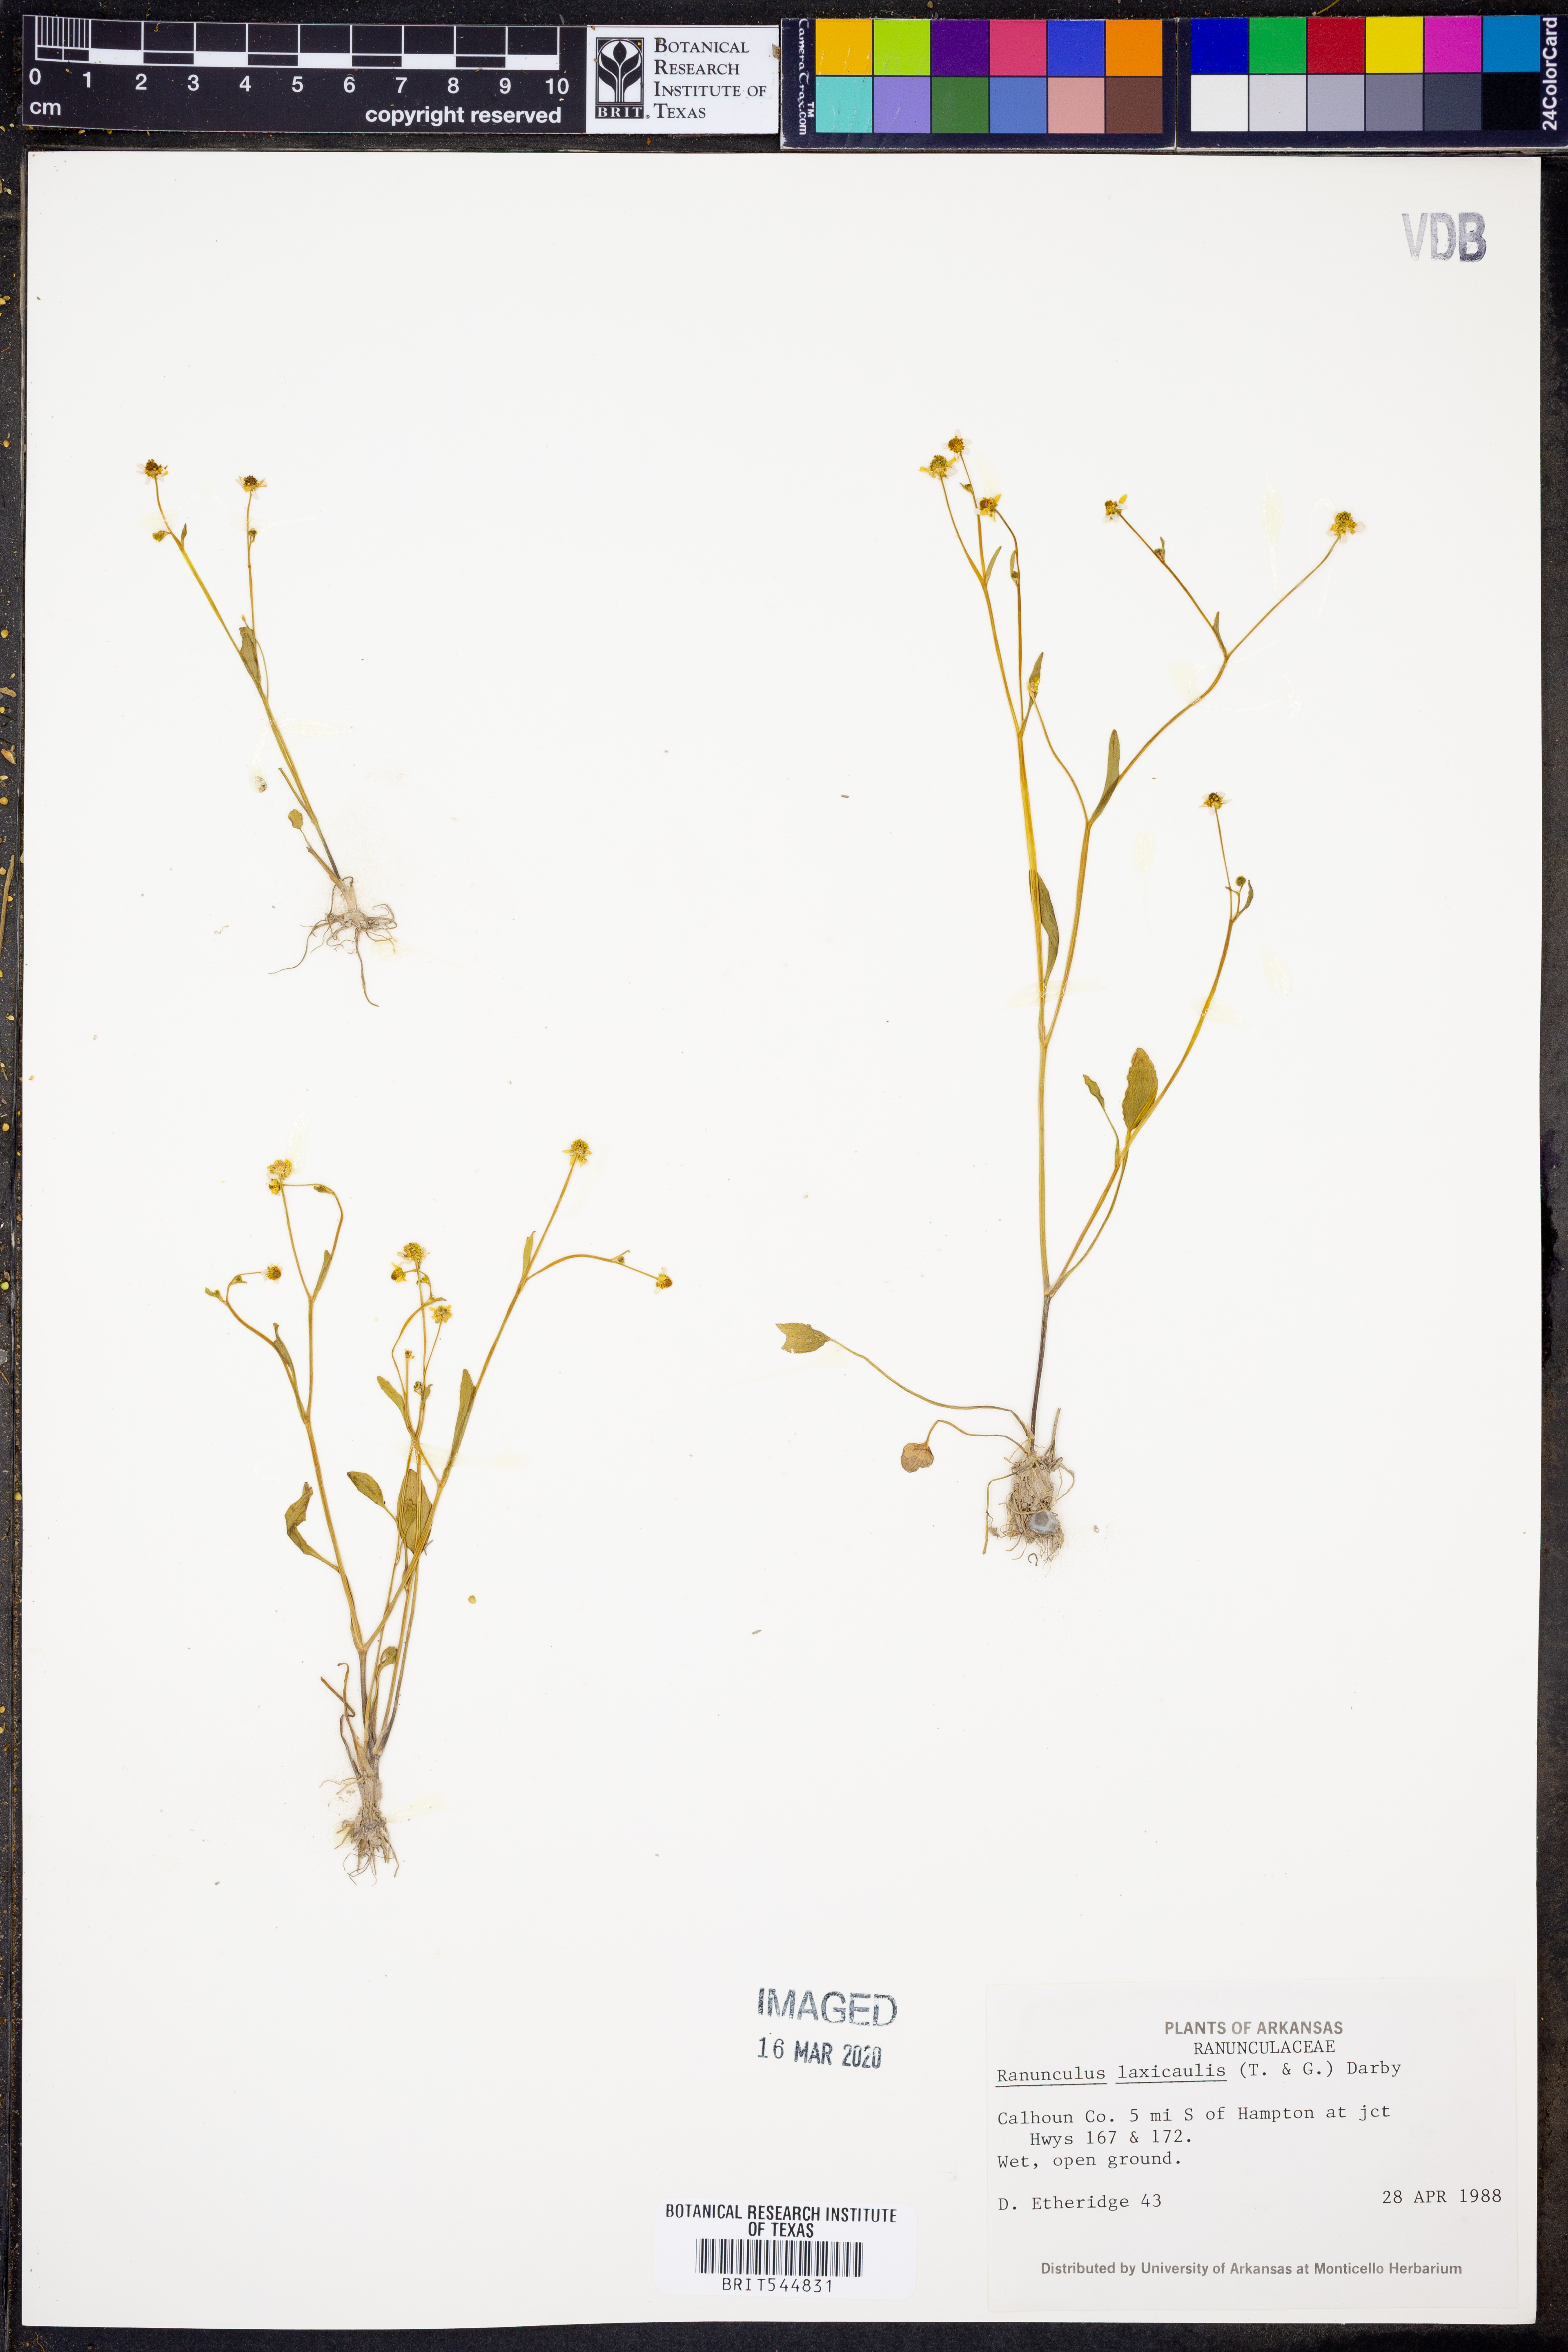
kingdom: Plantae
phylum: Tracheophyta
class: Magnoliopsida
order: Ranunculales
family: Ranunculaceae
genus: Ranunculus
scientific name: Ranunculus laxicaulis
